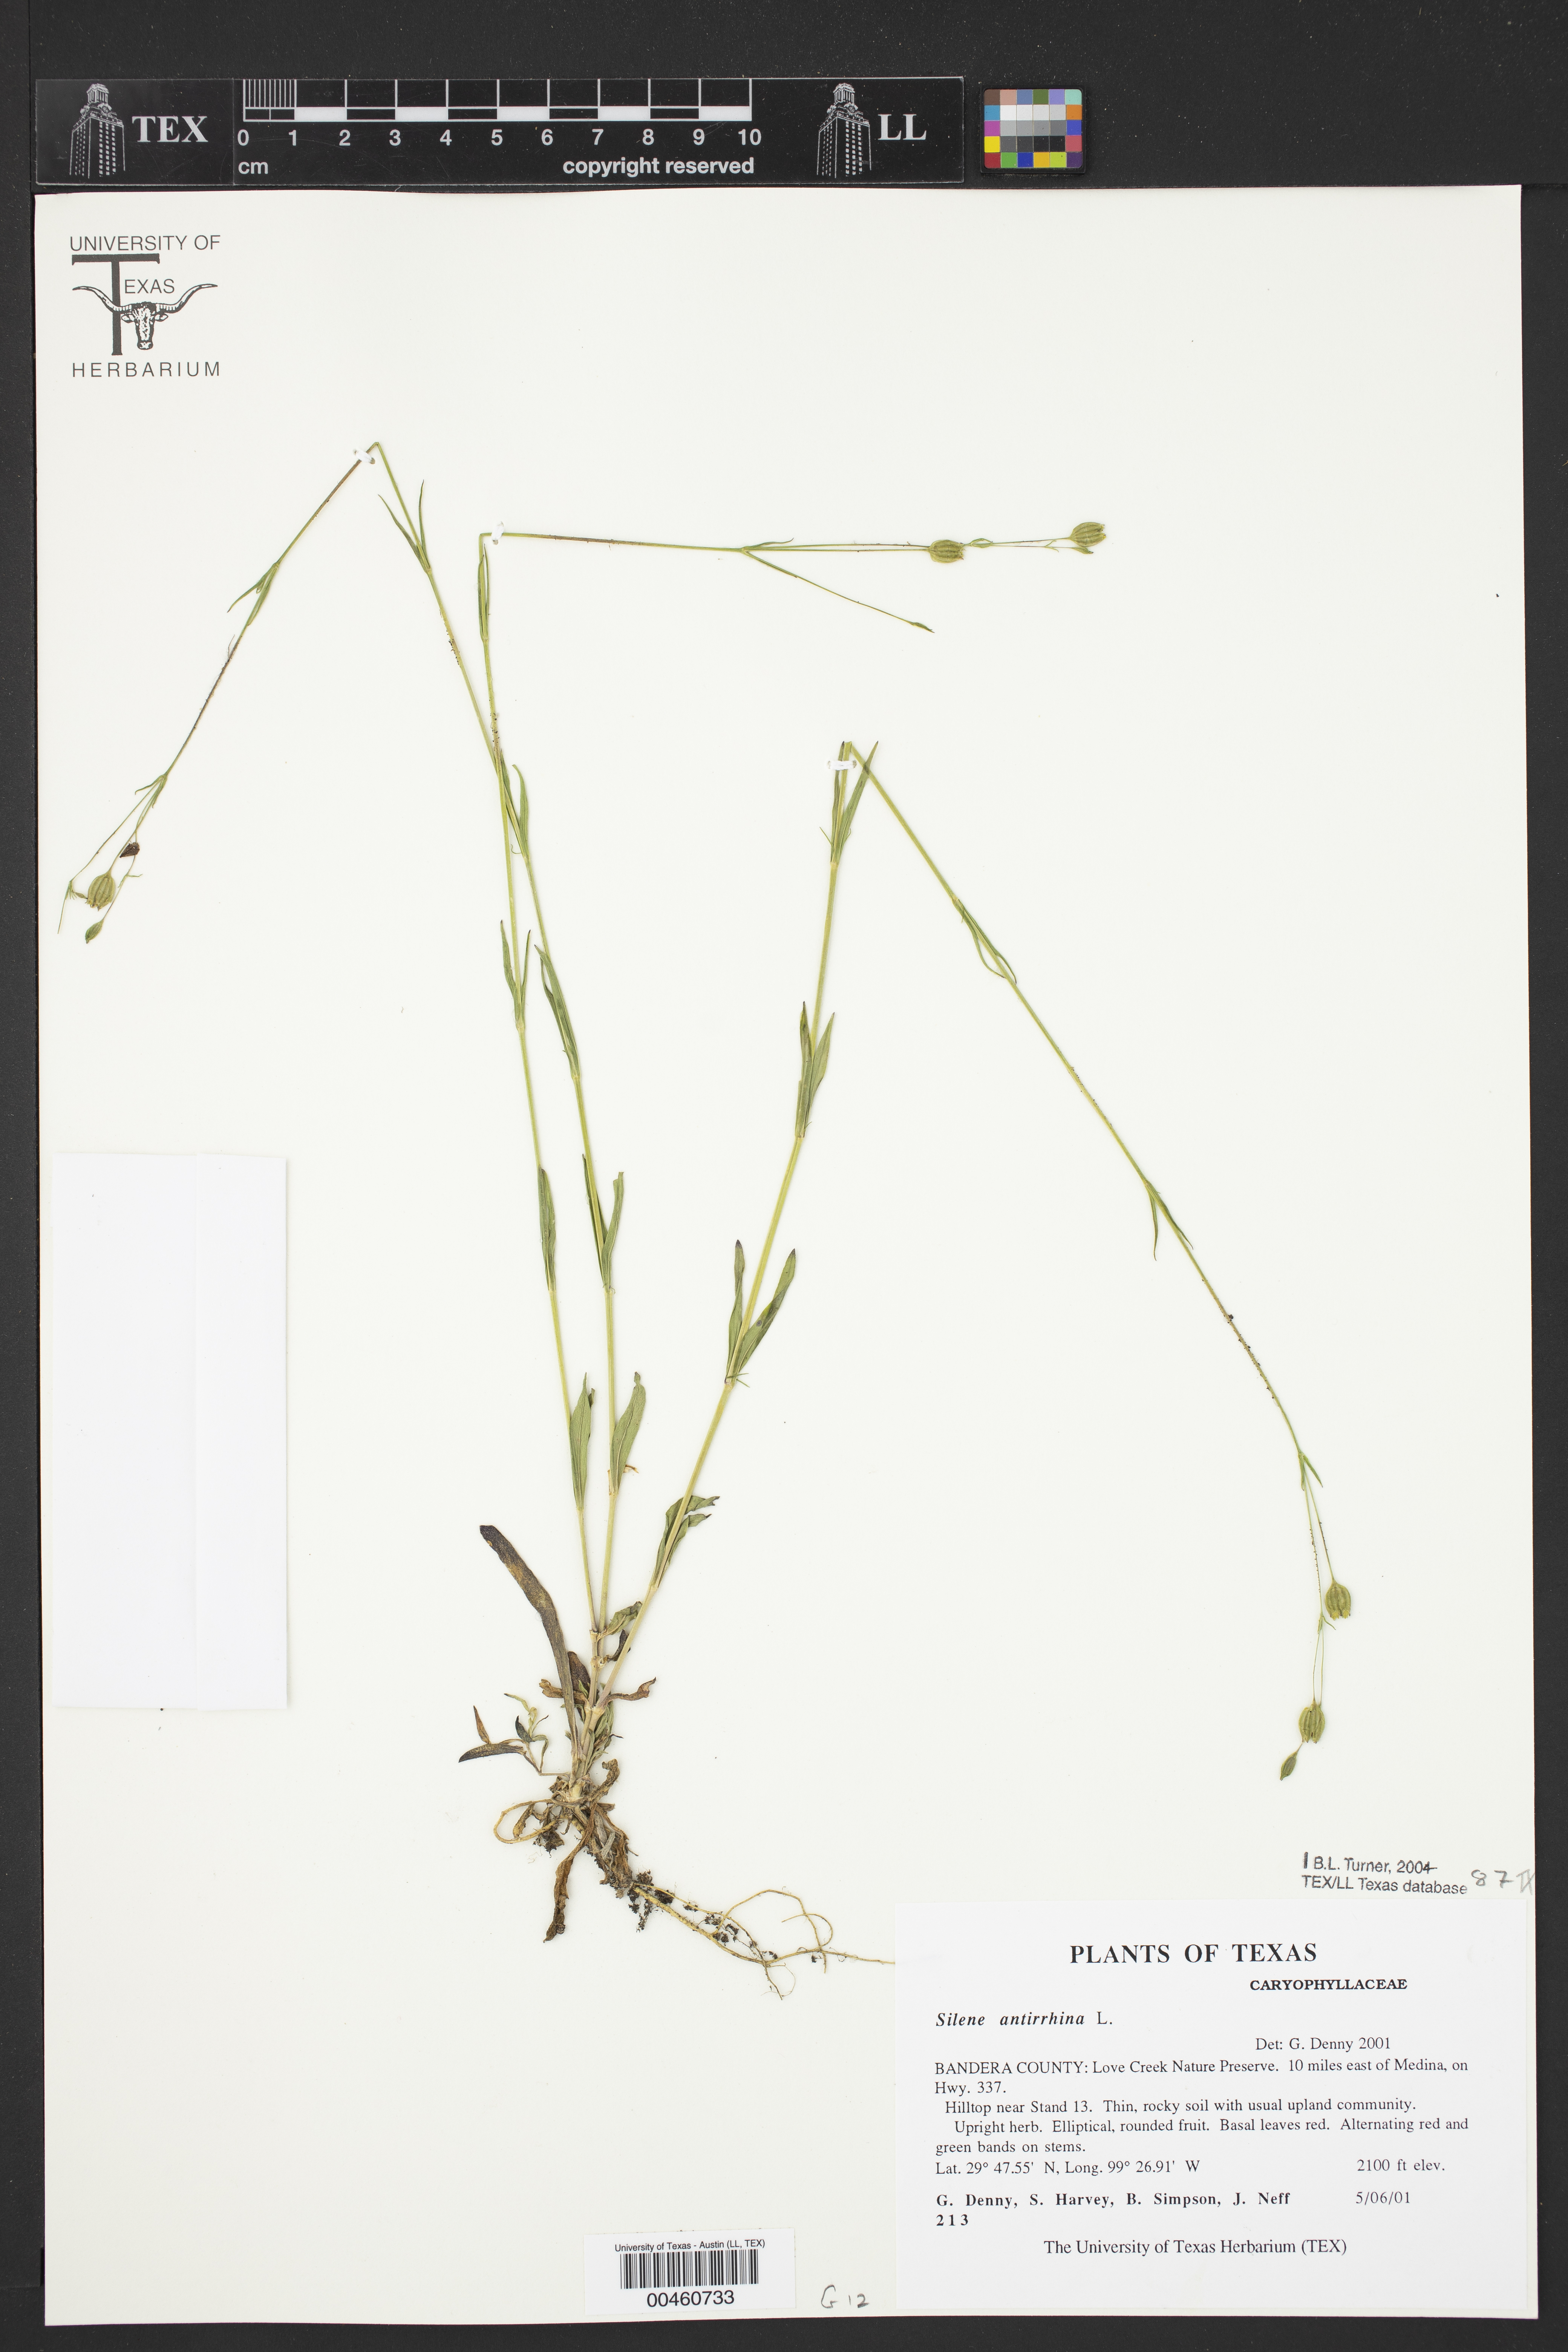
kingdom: Plantae
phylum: Tracheophyta
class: Magnoliopsida
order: Caryophyllales
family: Caryophyllaceae
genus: Silene
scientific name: Silene antirrhina
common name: Sleepy catchfly
